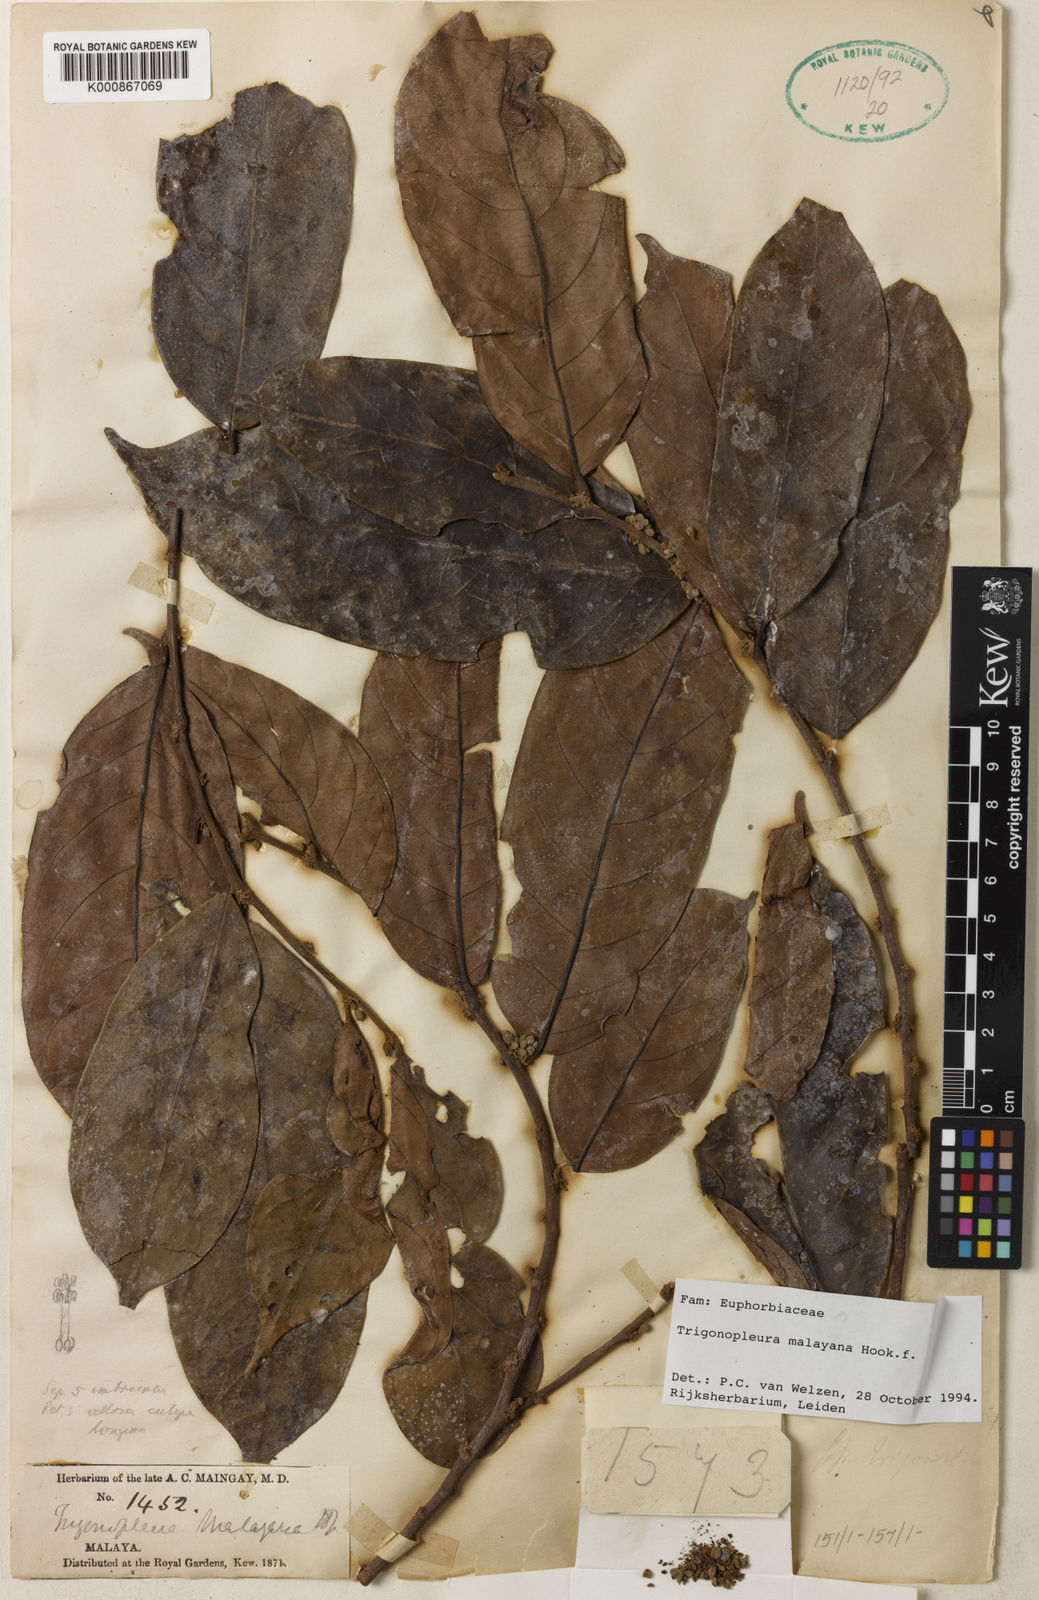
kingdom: Plantae
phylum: Tracheophyta
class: Magnoliopsida
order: Malpighiales
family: Peraceae
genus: Trigonopleura
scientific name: Trigonopleura malayana
